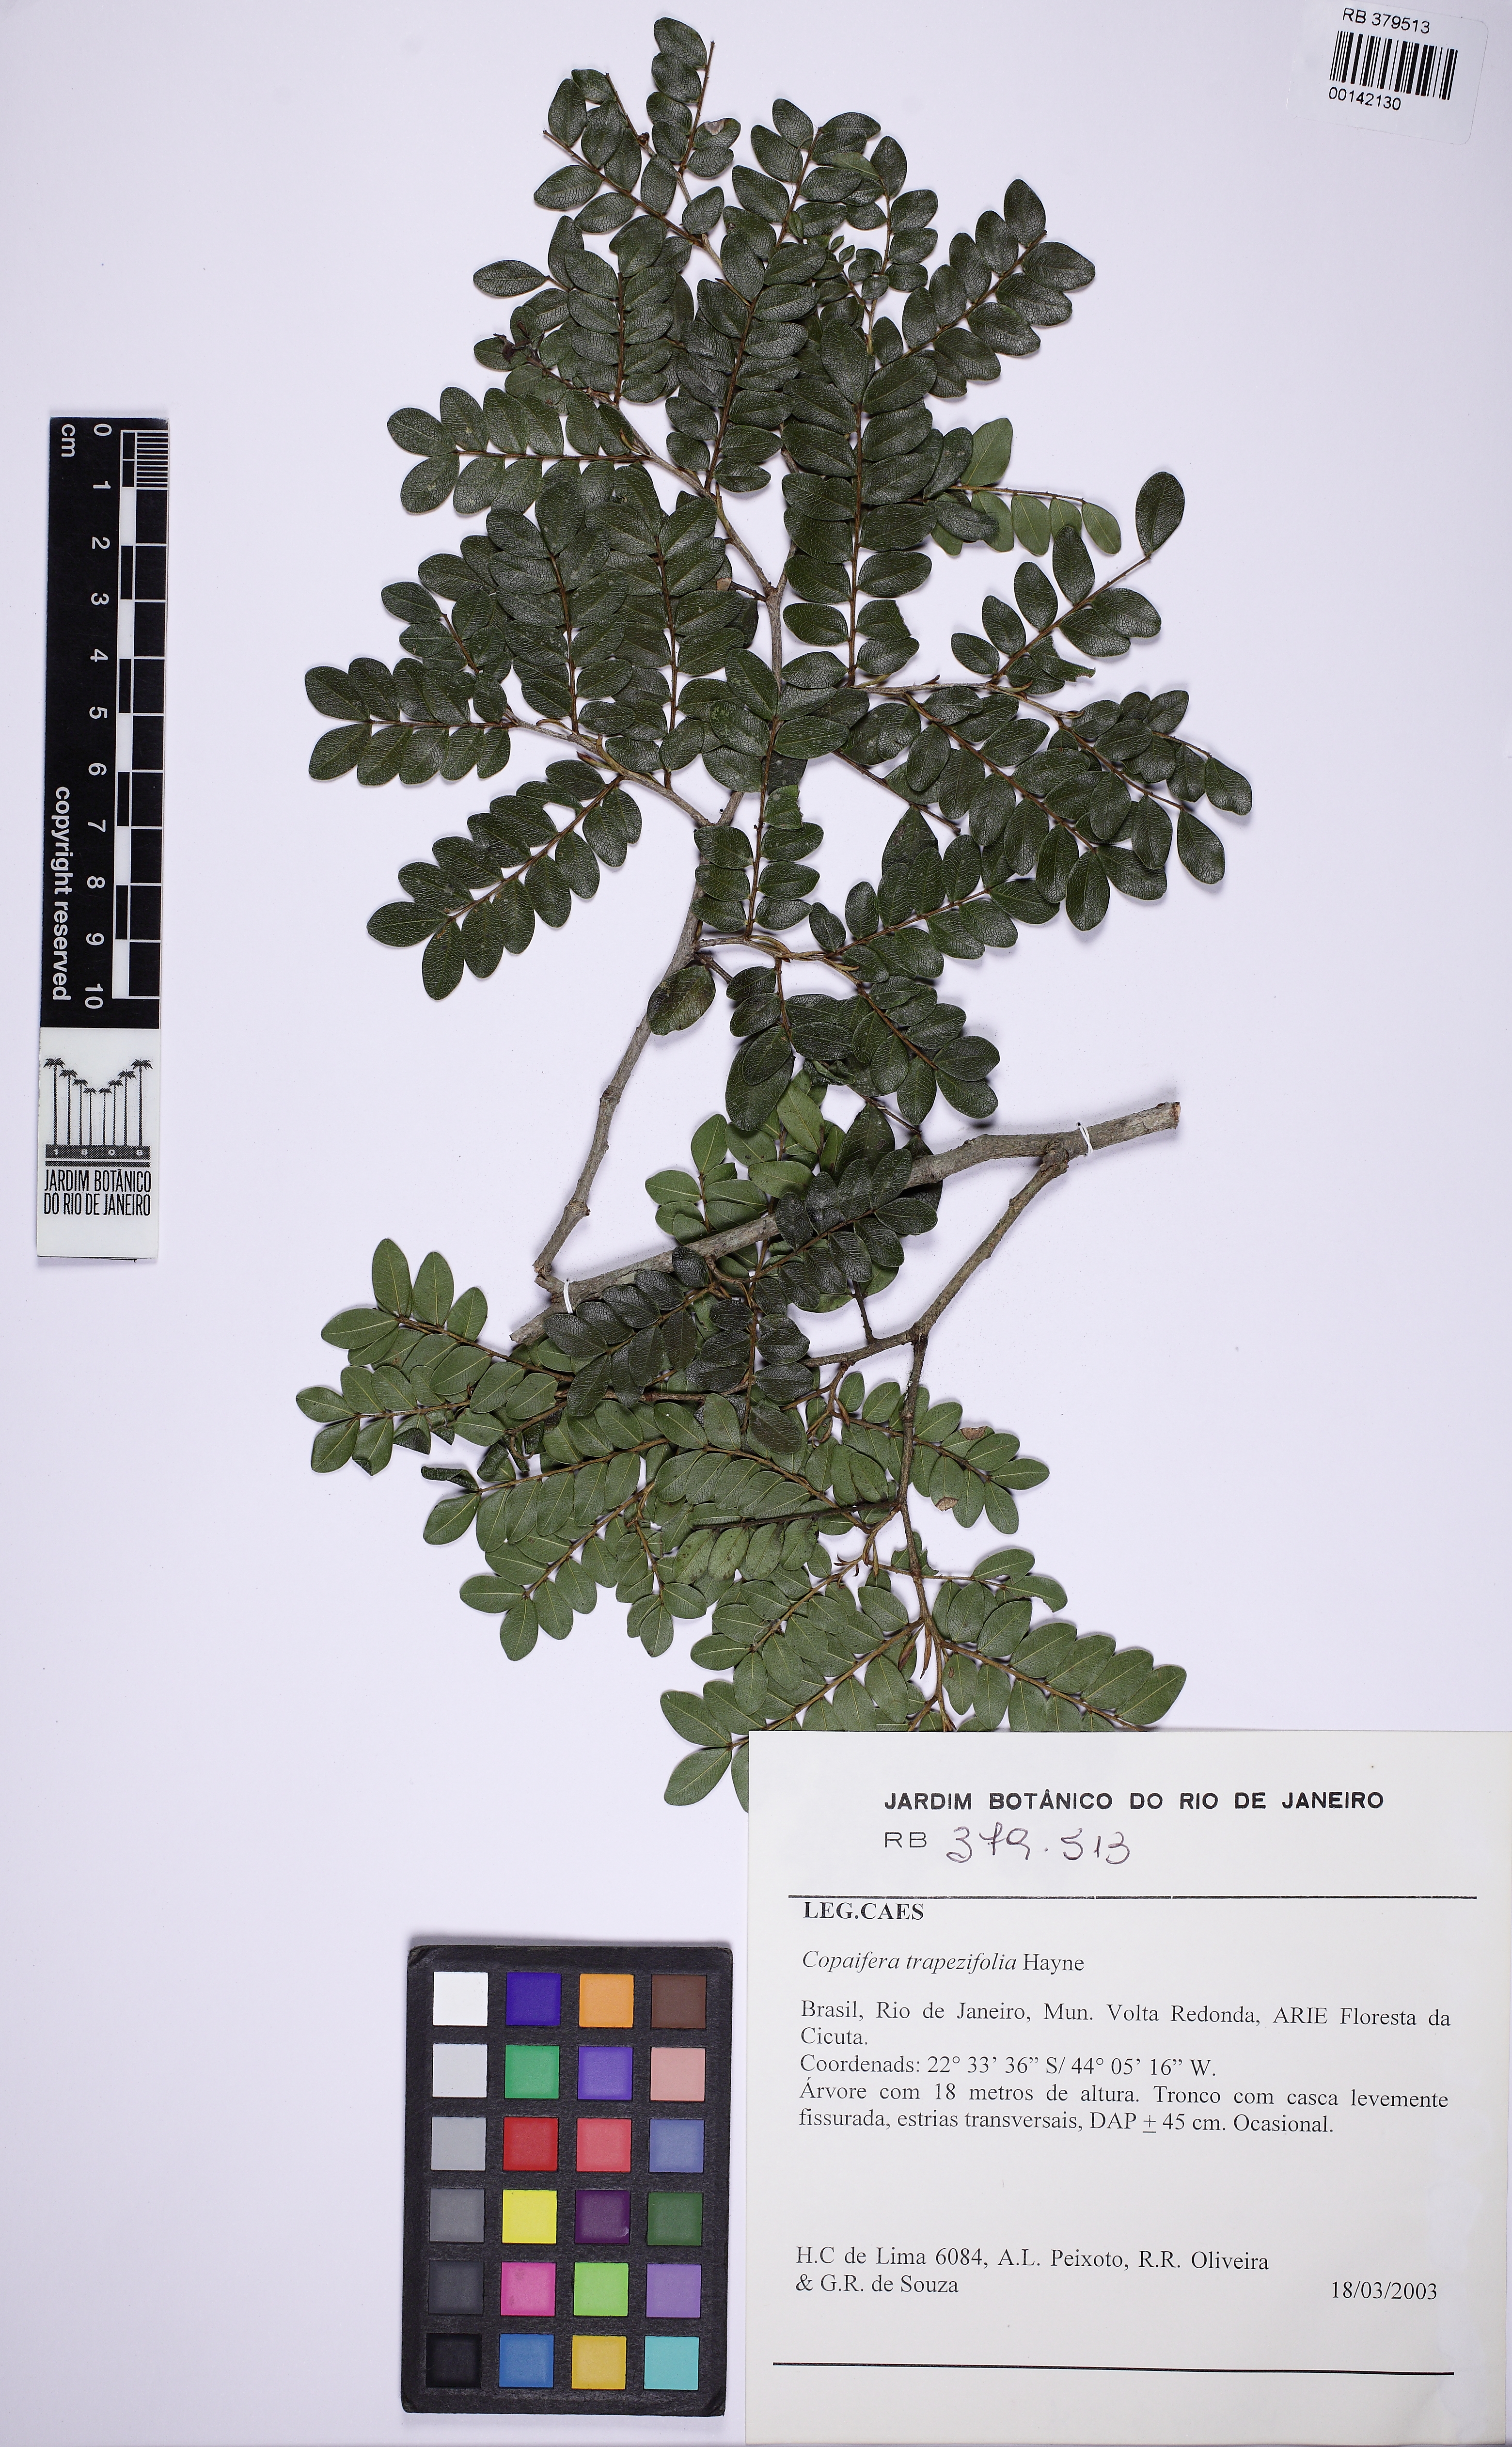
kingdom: Plantae
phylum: Tracheophyta
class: Magnoliopsida
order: Fabales
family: Fabaceae
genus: Copaifera
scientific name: Copaifera trapezifolia
